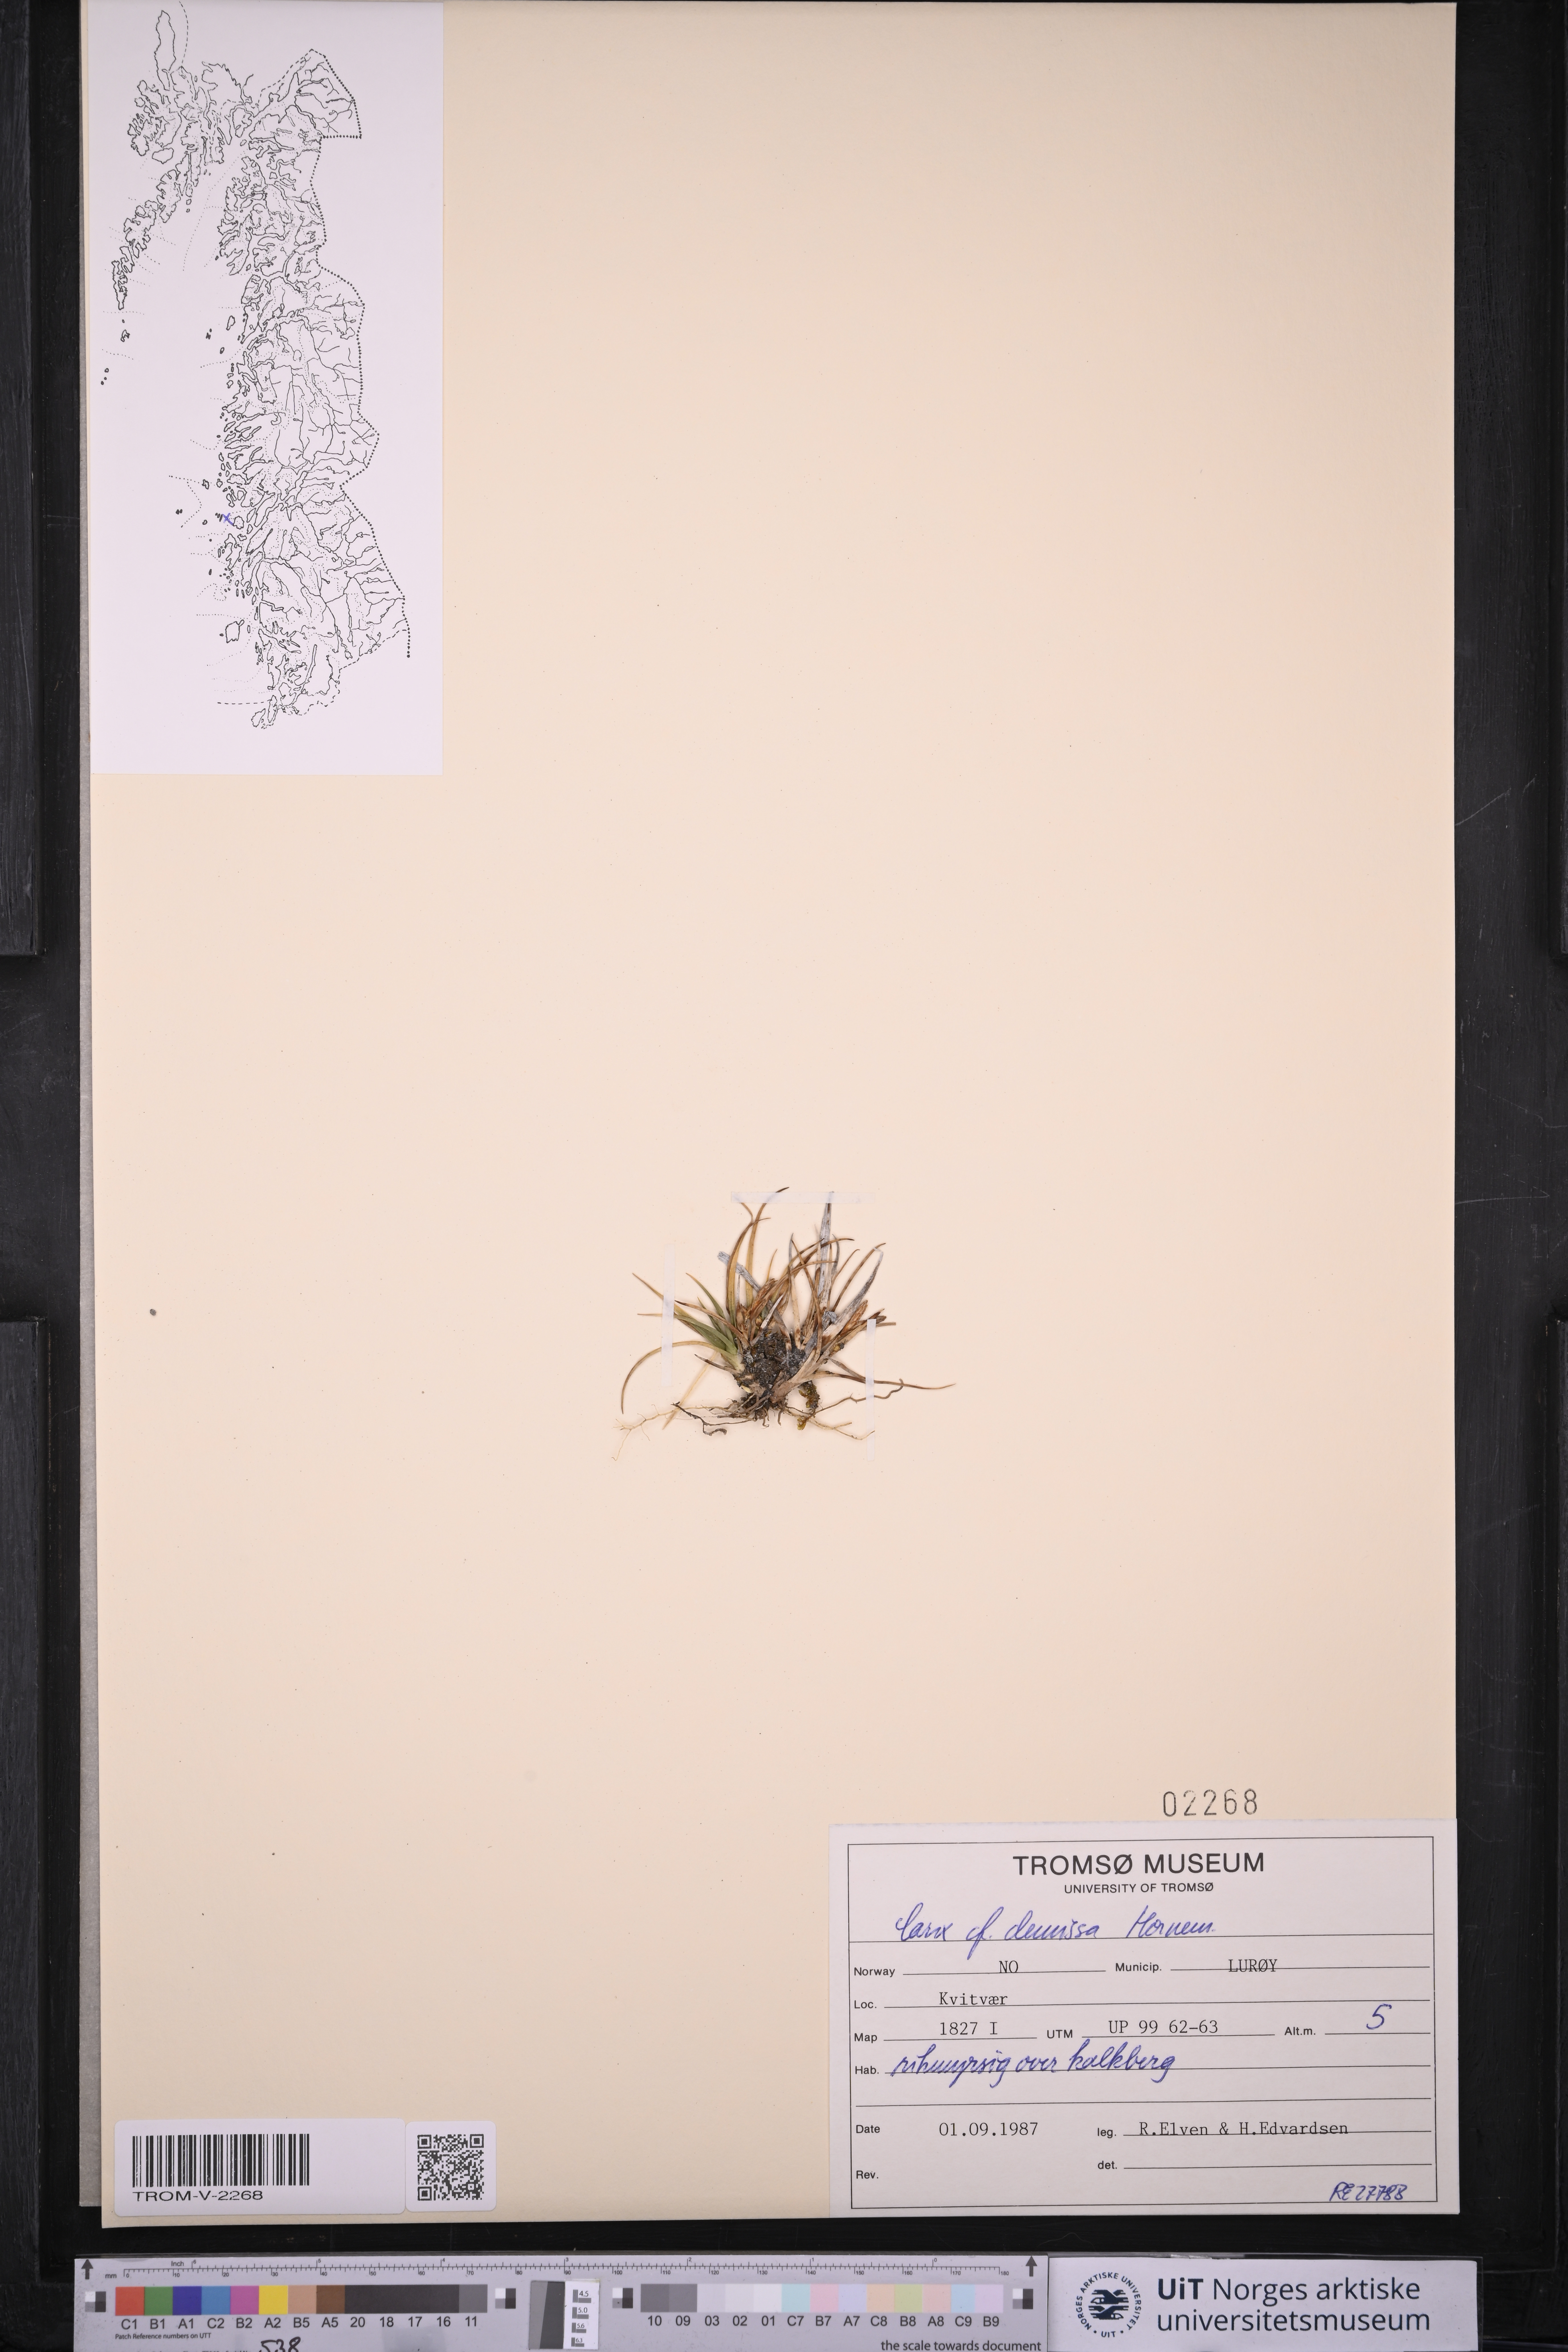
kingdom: Plantae
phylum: Tracheophyta
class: Liliopsida
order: Poales
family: Cyperaceae
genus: Carex
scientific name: Carex demissa
